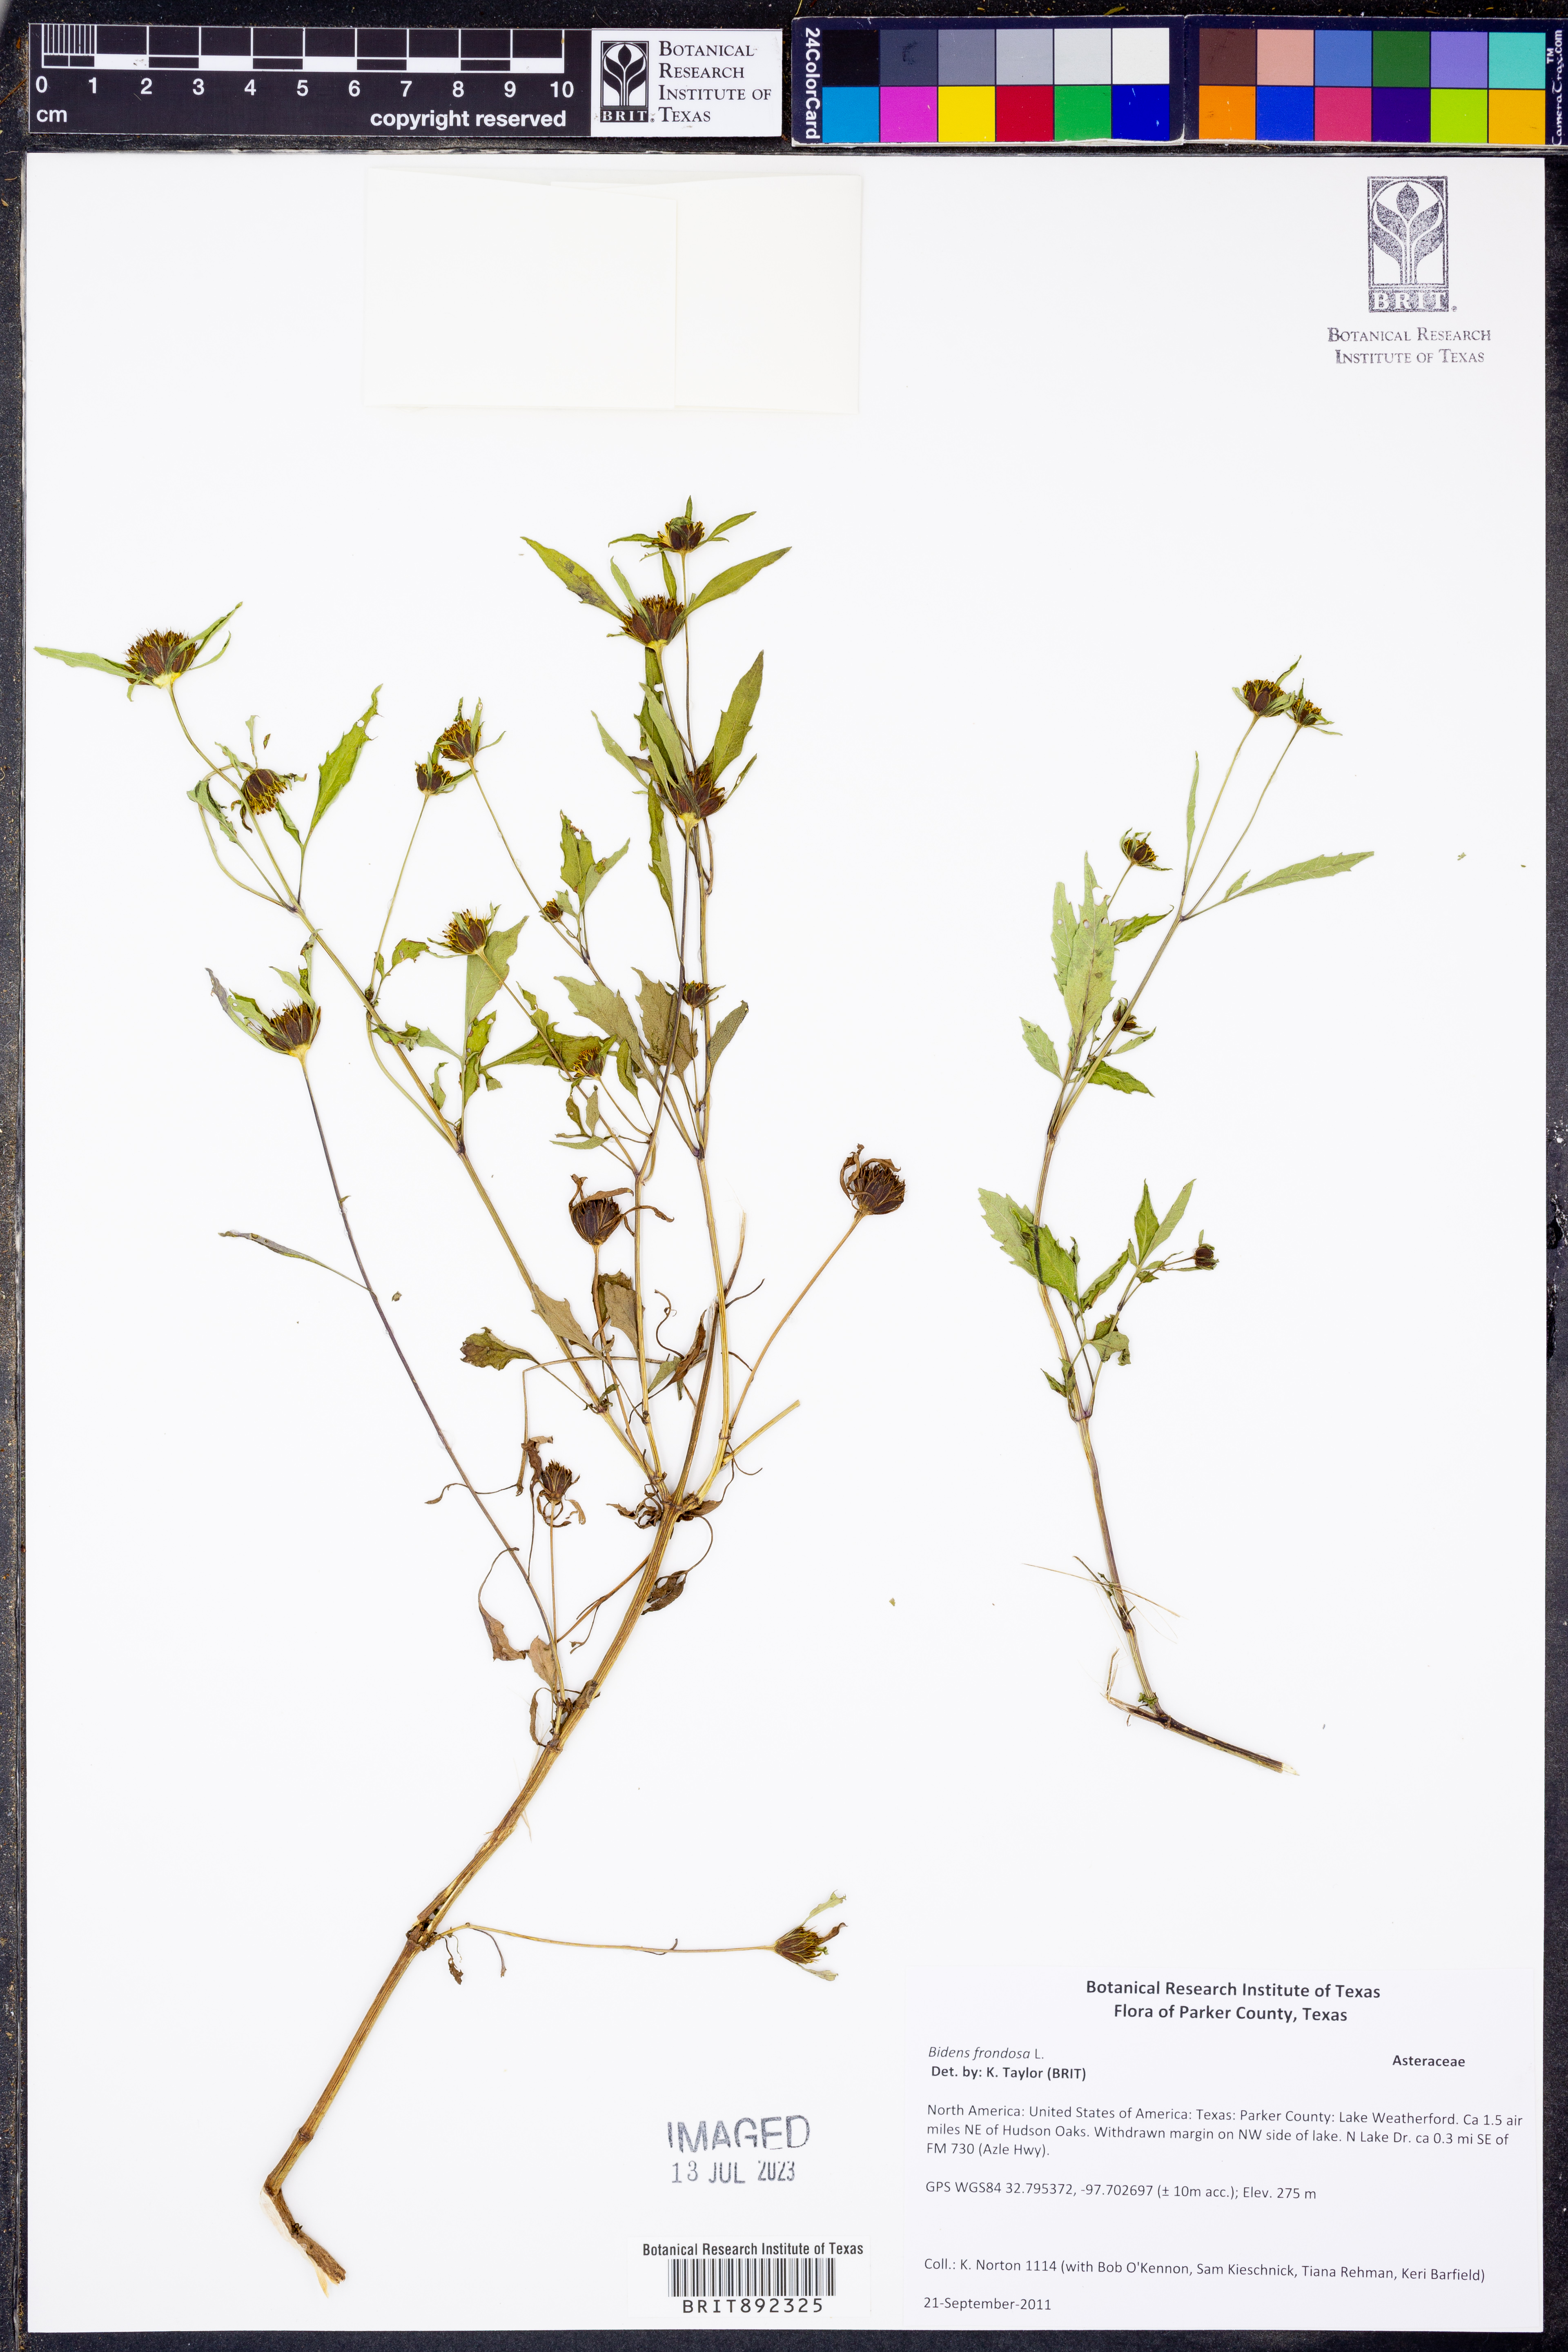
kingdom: Plantae
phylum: Tracheophyta
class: Magnoliopsida
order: Asterales
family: Asteraceae
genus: Bidens
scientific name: Bidens frondosa
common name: Beggarticks
